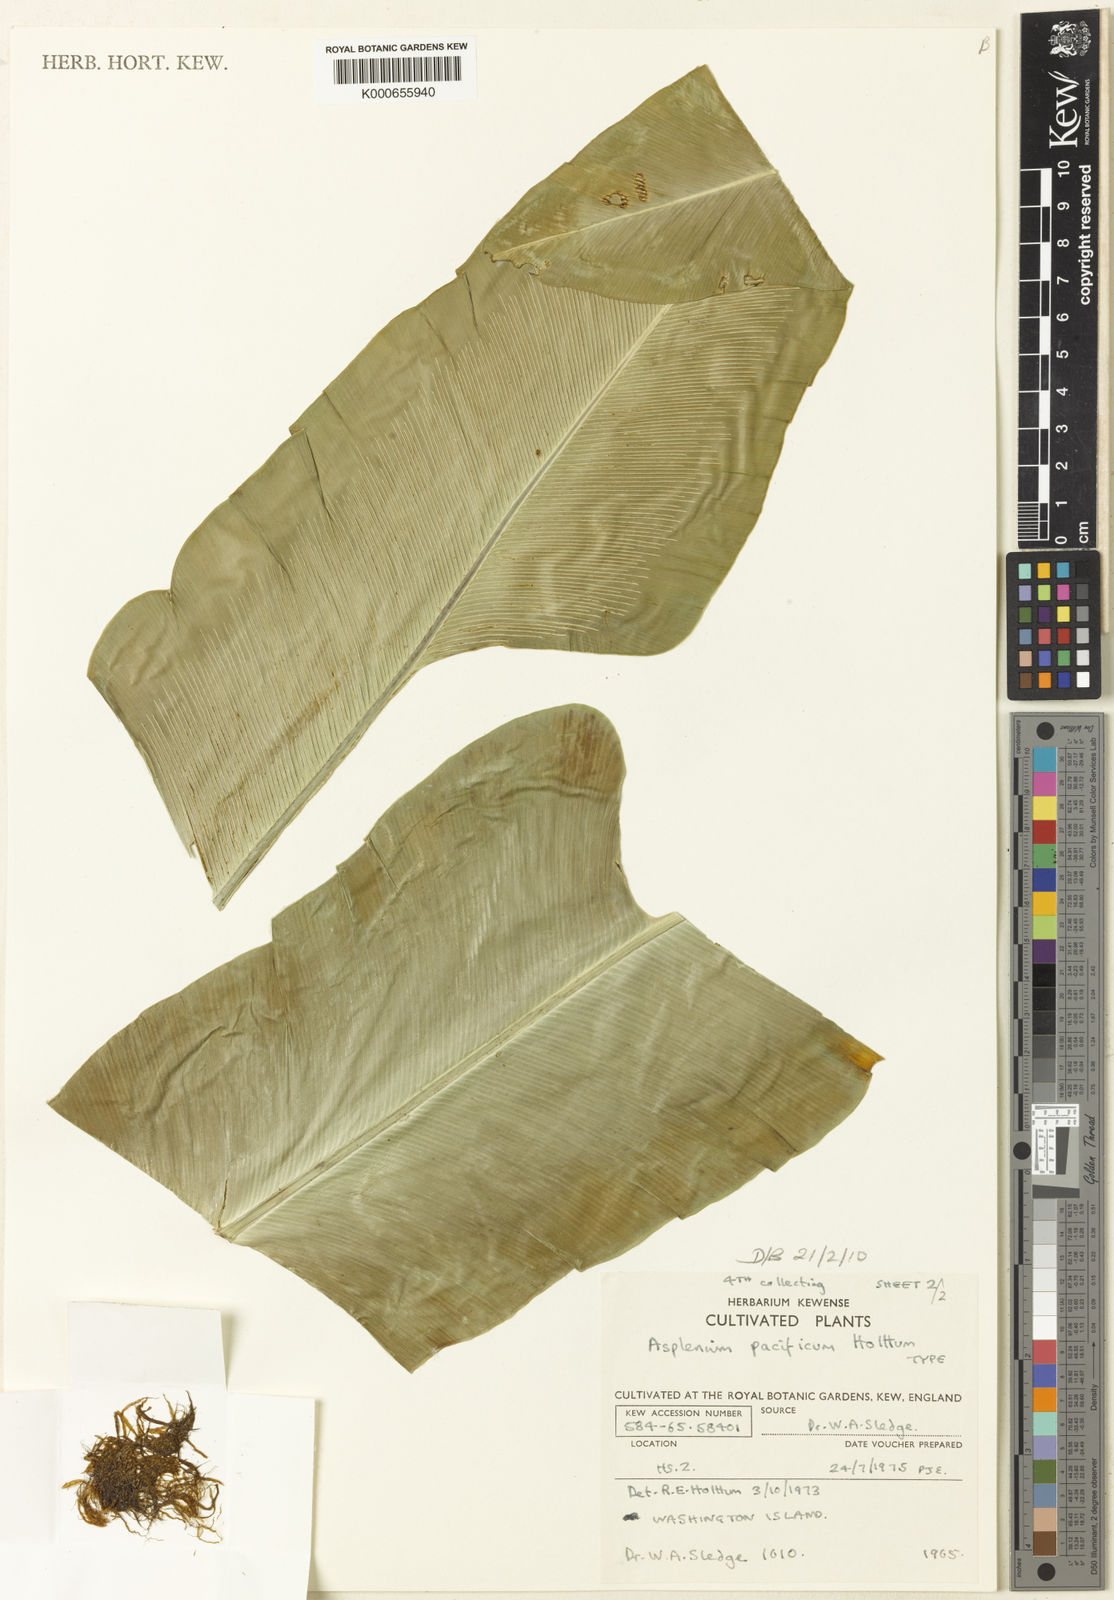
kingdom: Plantae
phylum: Tracheophyta
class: Polypodiopsida
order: Polypodiales
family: Aspleniaceae
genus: Asplenium
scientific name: Asplenium pacificum
